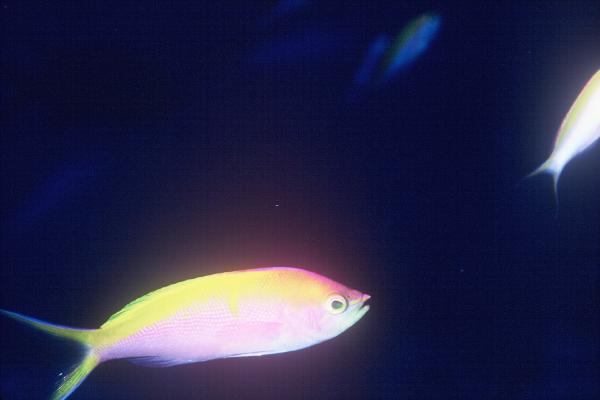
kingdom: Animalia
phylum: Chordata
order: Perciformes
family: Serranidae
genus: Pseudanthias
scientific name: Pseudanthias bartlettorum
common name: Bartlett's fairy basslet
